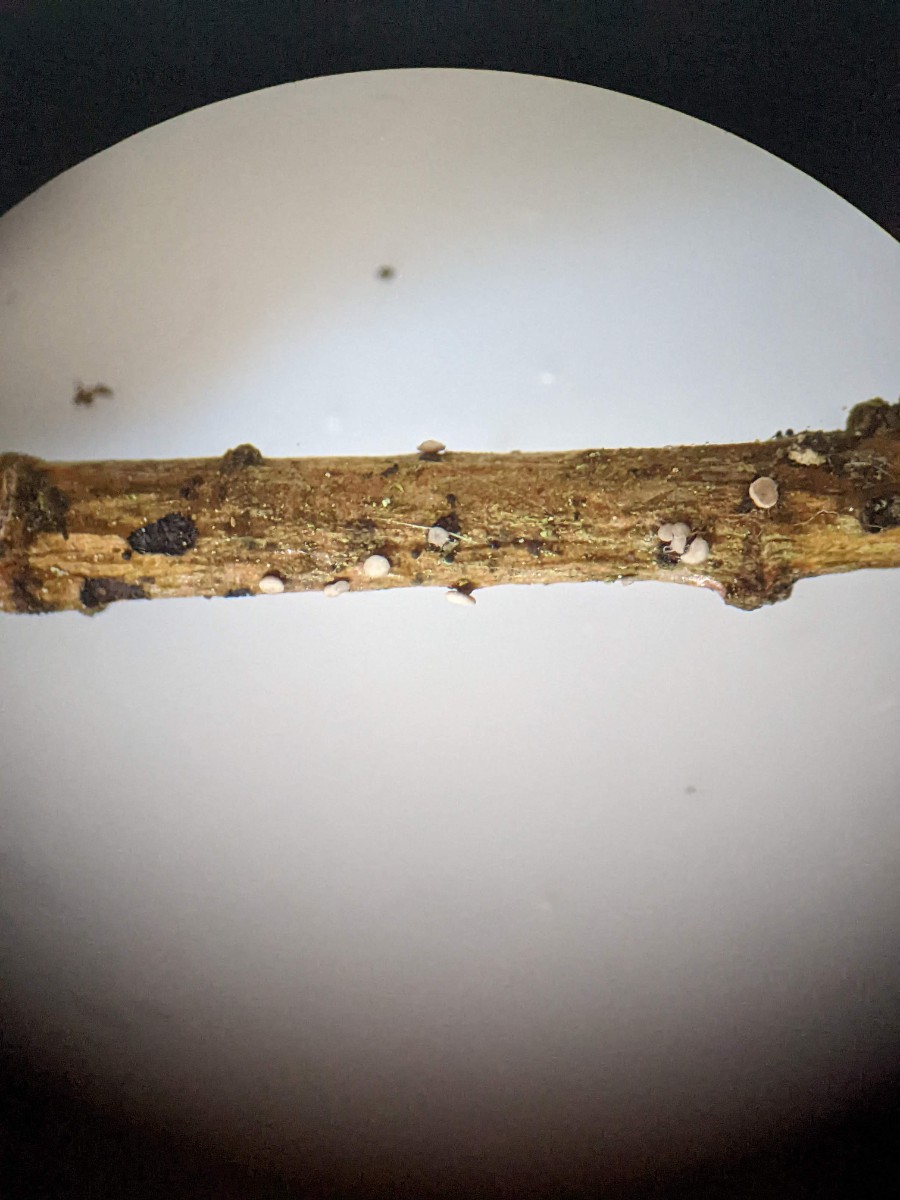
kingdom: Fungi
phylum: Ascomycota
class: Leotiomycetes
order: Helotiales
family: Pezizellaceae
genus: Pezizella
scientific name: Pezizella
